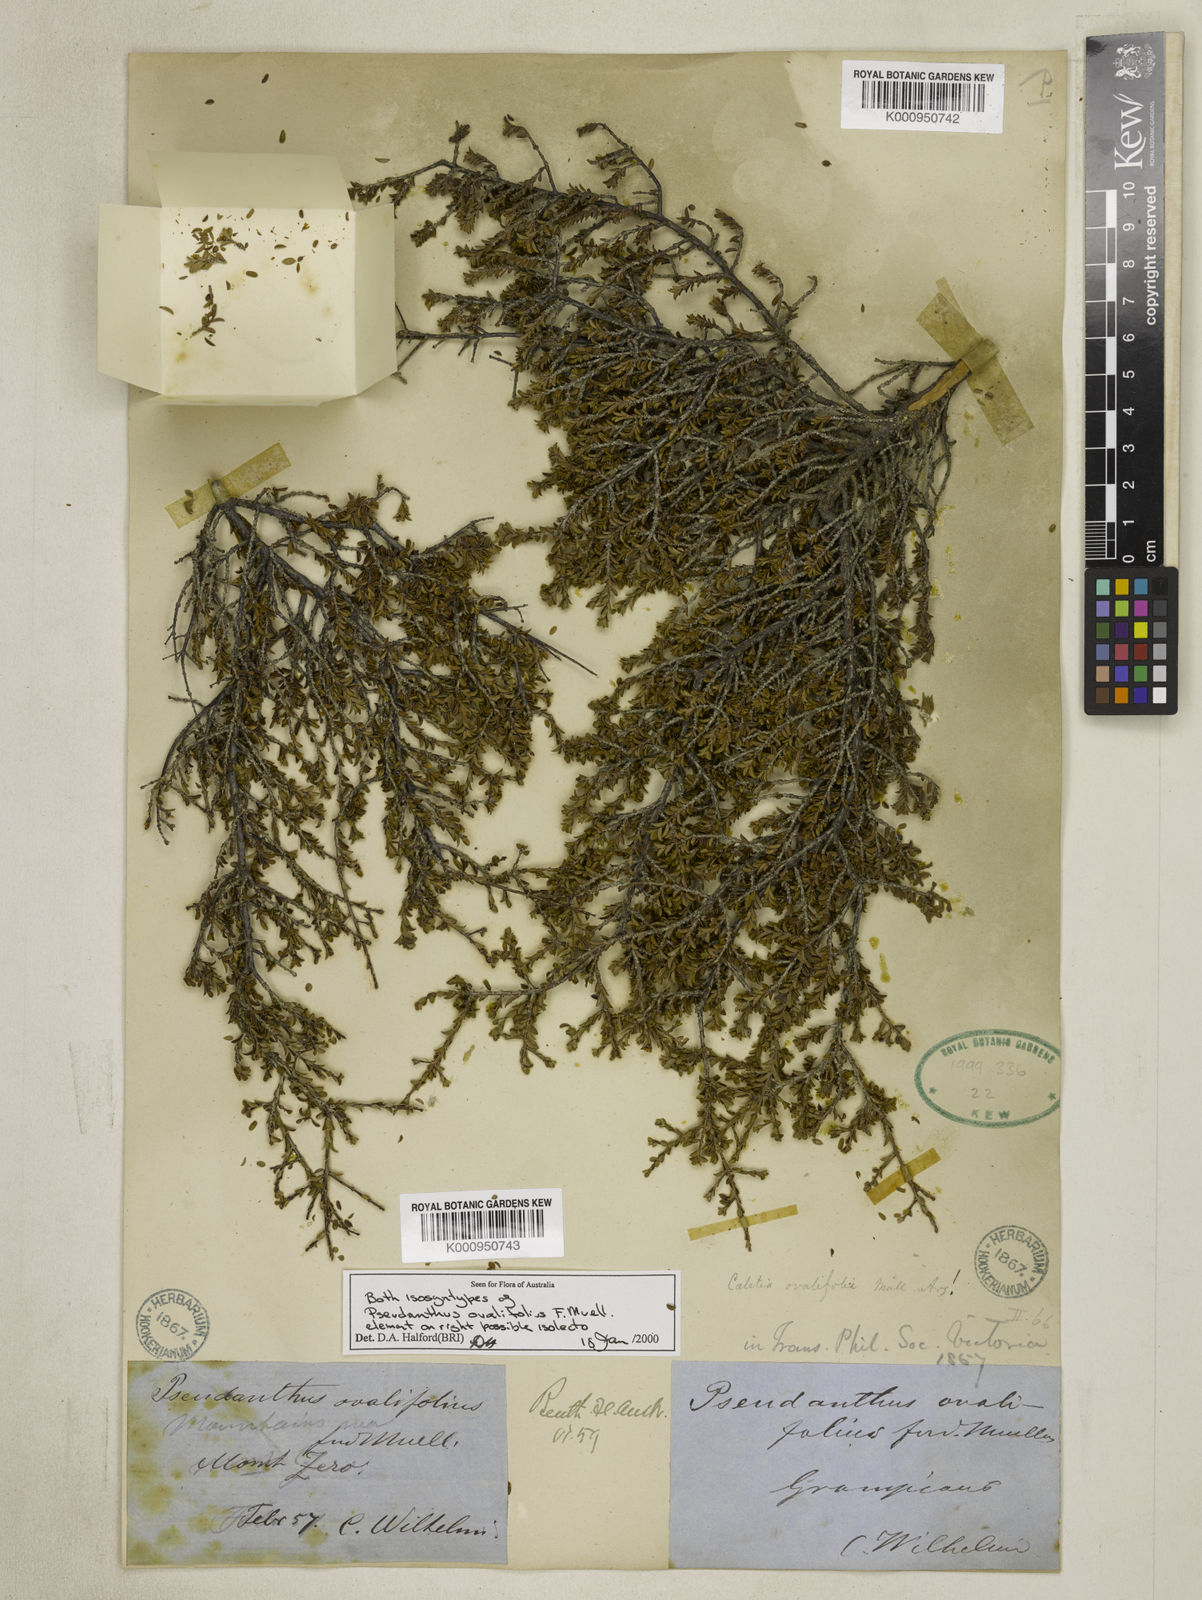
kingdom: Plantae
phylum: Tracheophyta
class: Magnoliopsida
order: Malpighiales
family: Picrodendraceae
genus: Pseudanthus
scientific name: Pseudanthus ovalifolius
